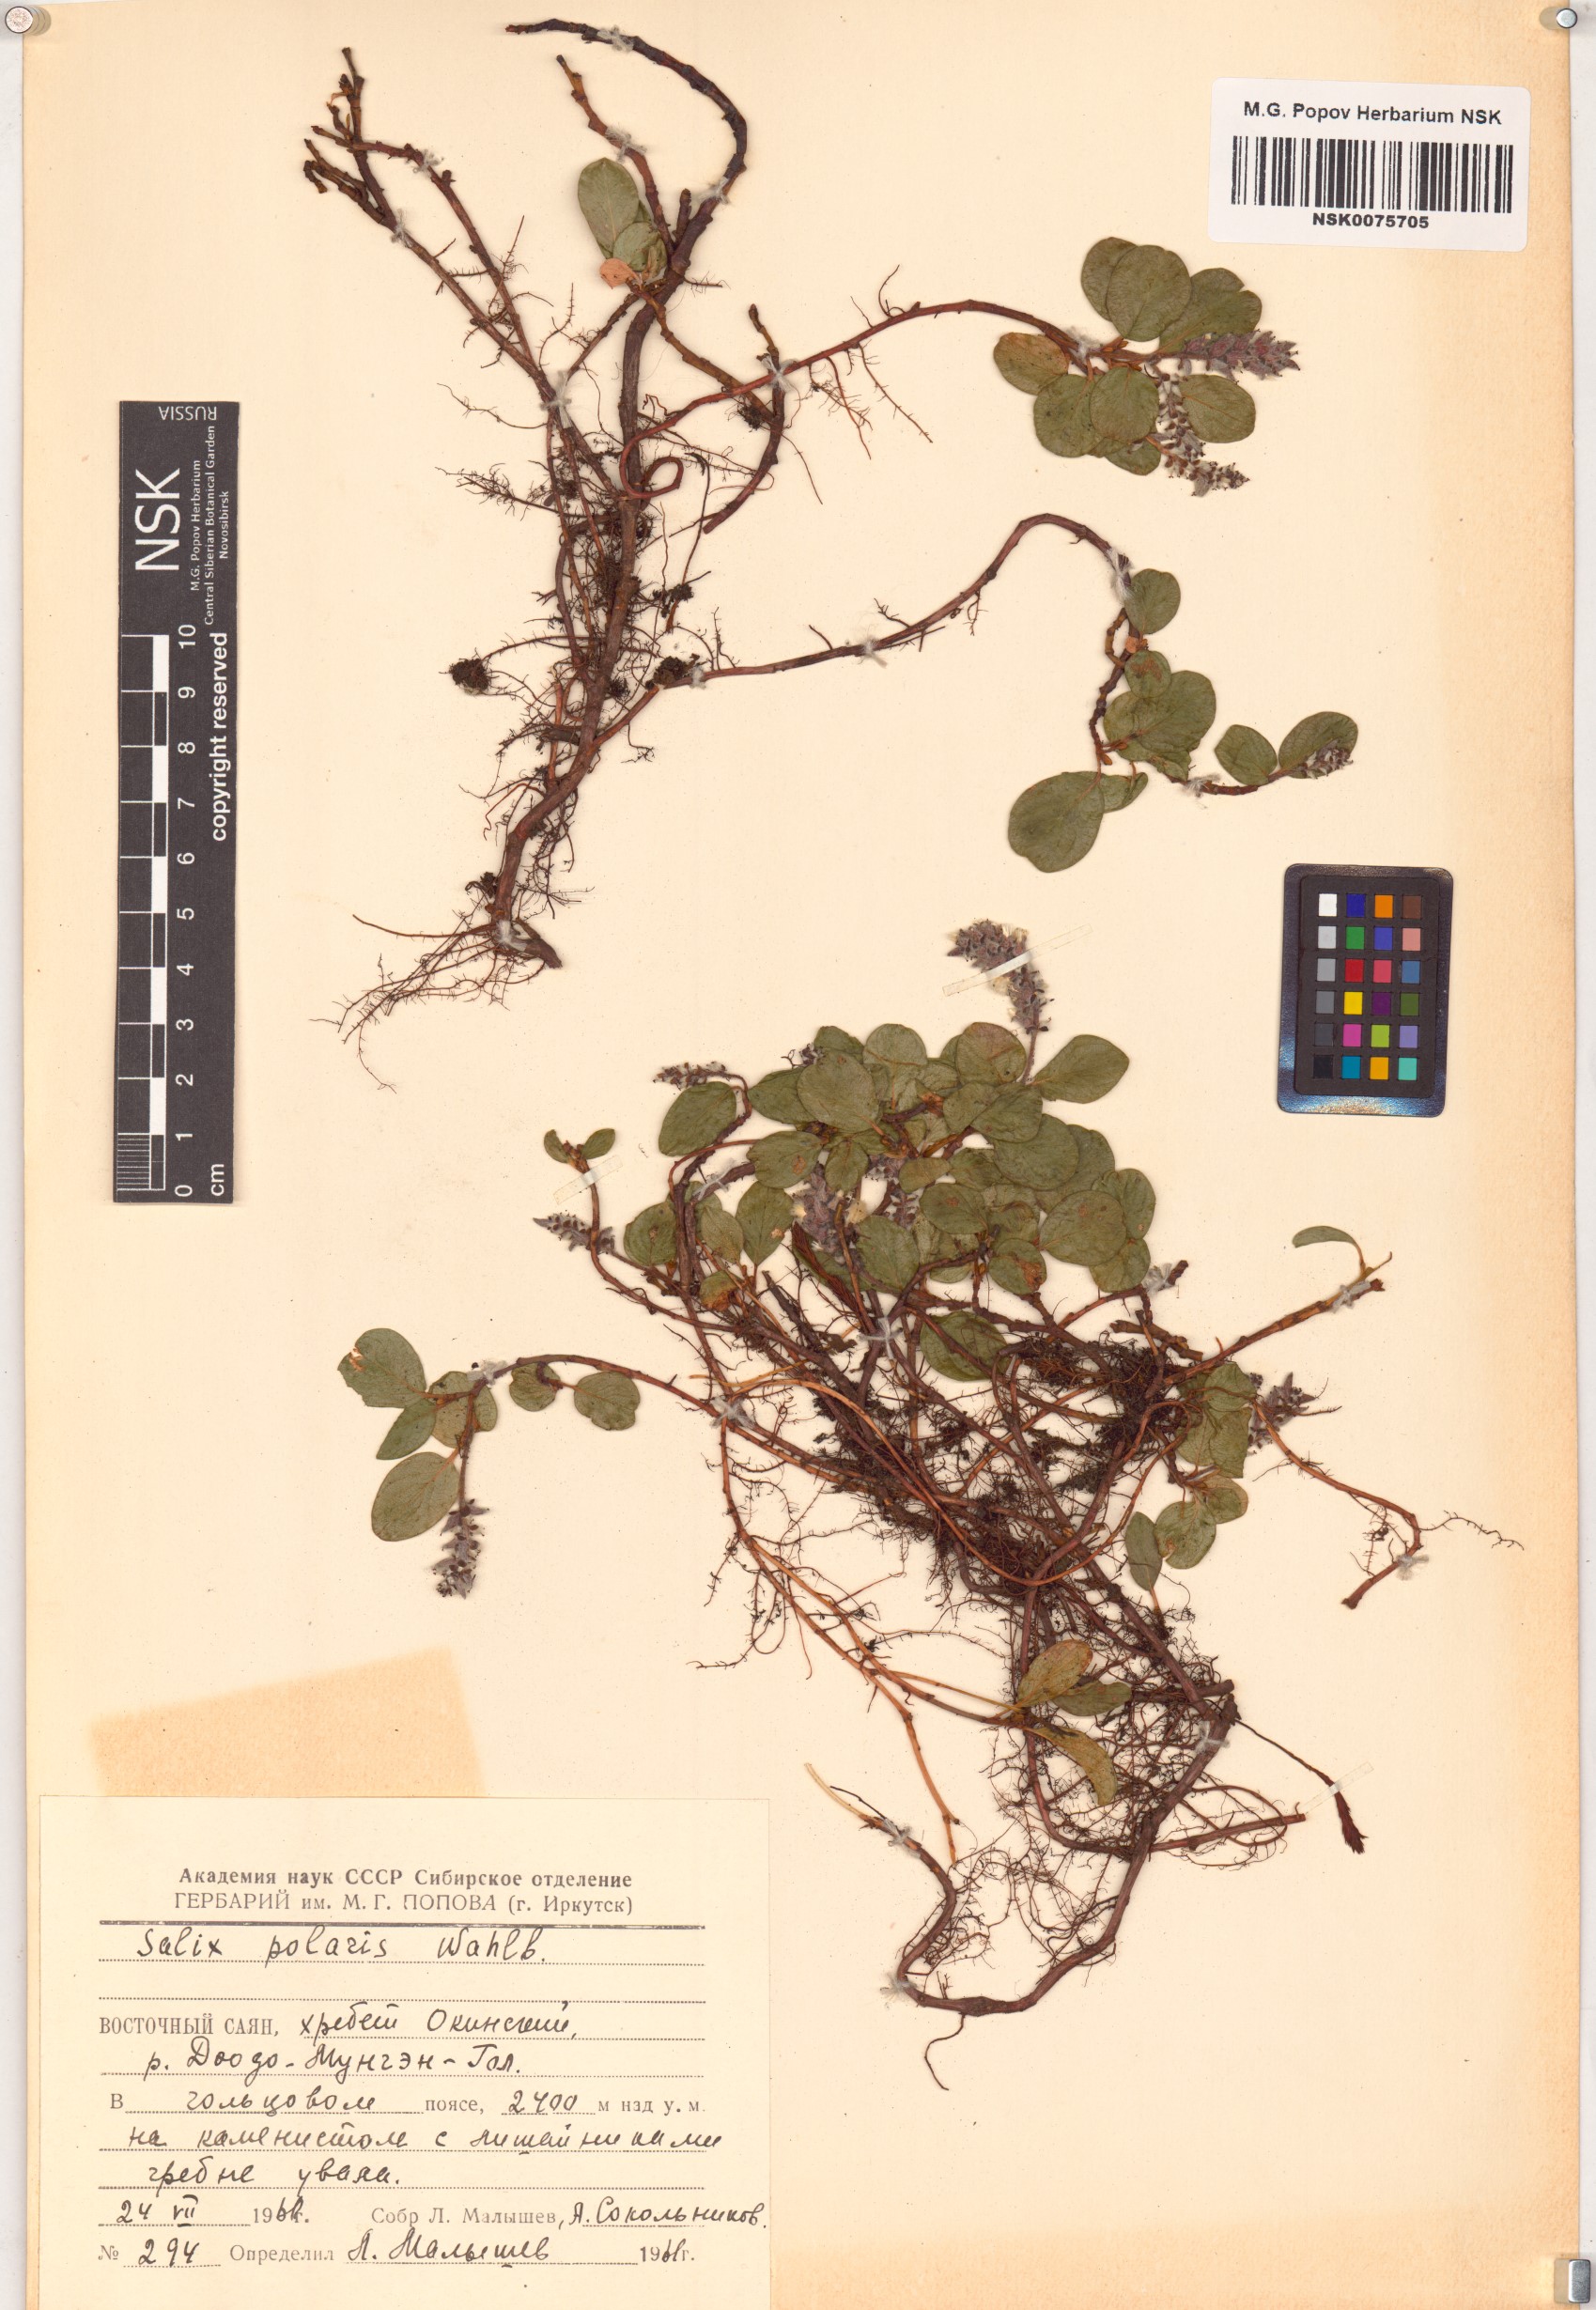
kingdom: Plantae
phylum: Tracheophyta
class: Magnoliopsida
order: Malpighiales
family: Salicaceae
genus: Salix
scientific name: Salix polaris
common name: Polar willow
